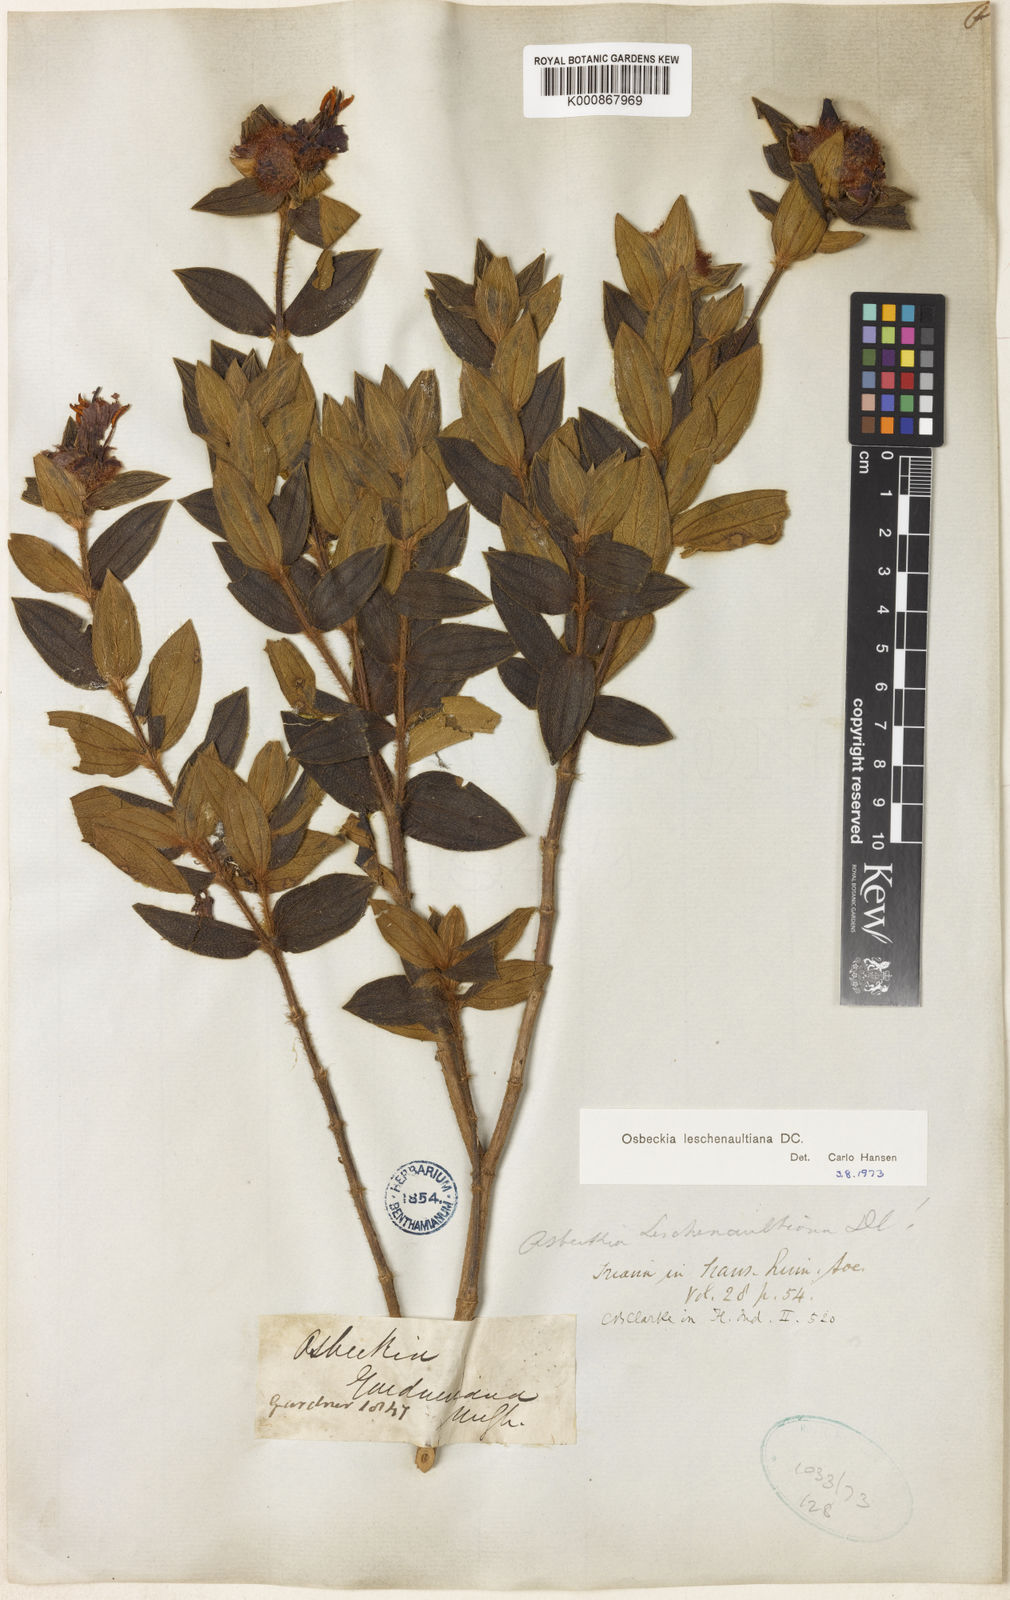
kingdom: Plantae
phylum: Tracheophyta
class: Magnoliopsida
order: Myrtales
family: Melastomataceae
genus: Osbeckia
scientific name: Osbeckia leschenaultiana
